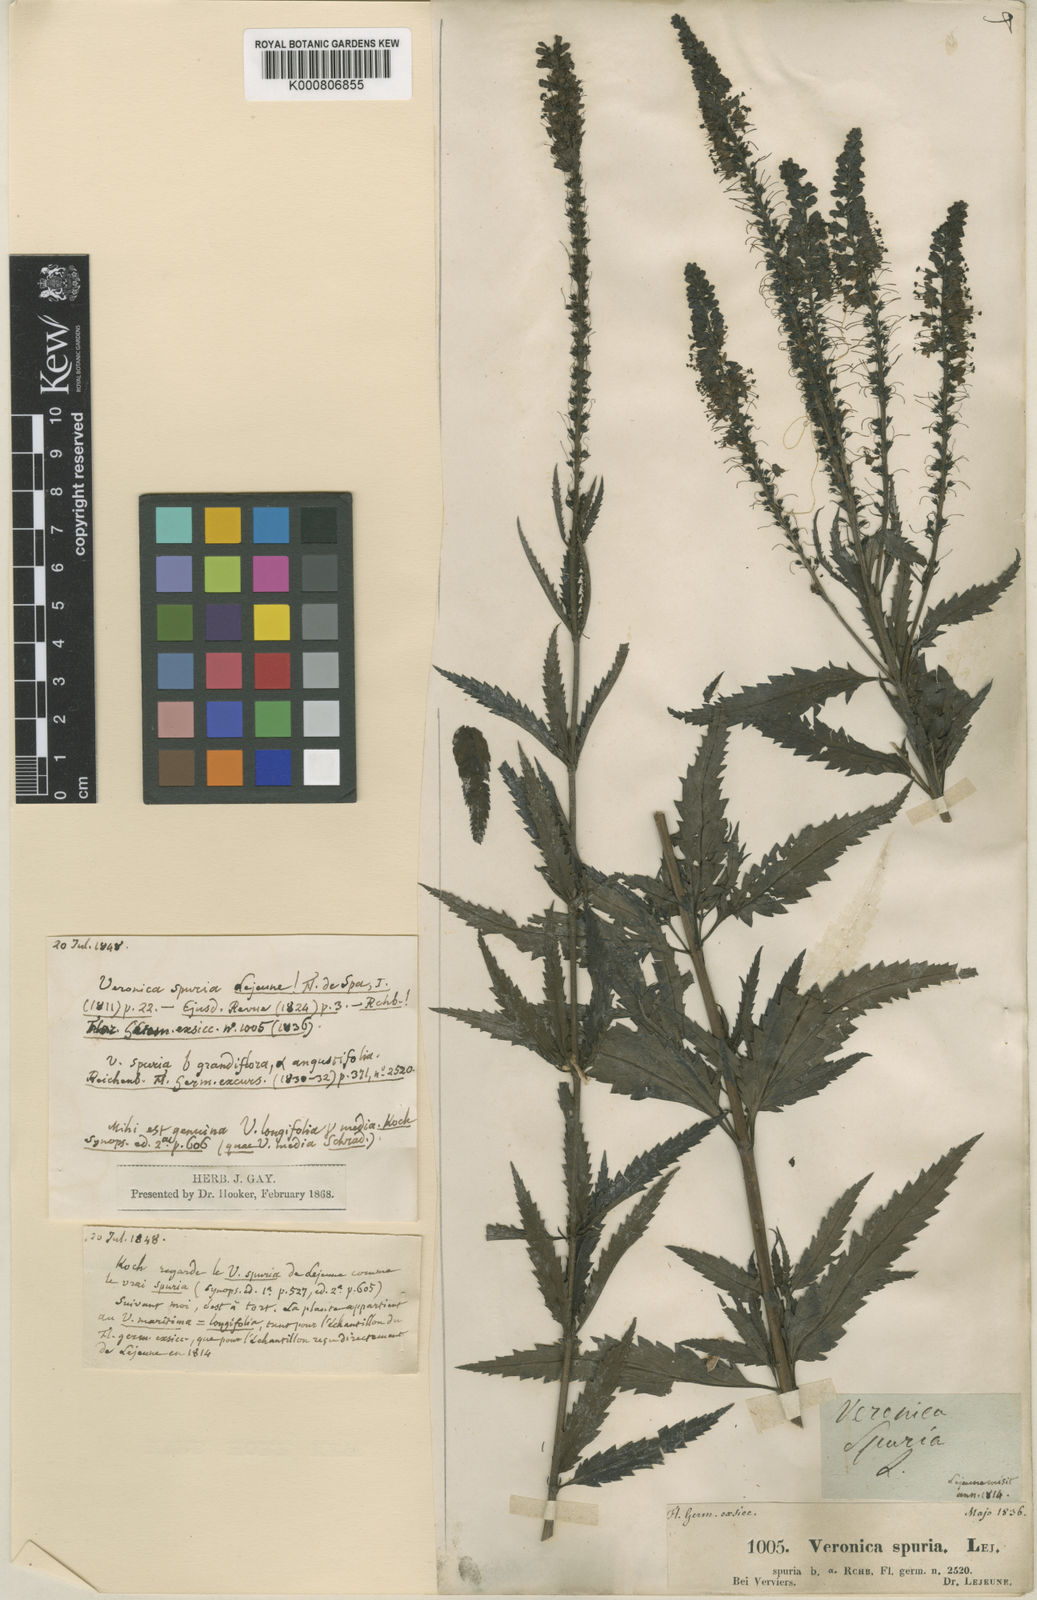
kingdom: Plantae
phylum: Tracheophyta
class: Magnoliopsida
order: Lamiales
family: Plantaginaceae
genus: Veronica
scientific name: Veronica longifolia
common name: Garden speedwell
